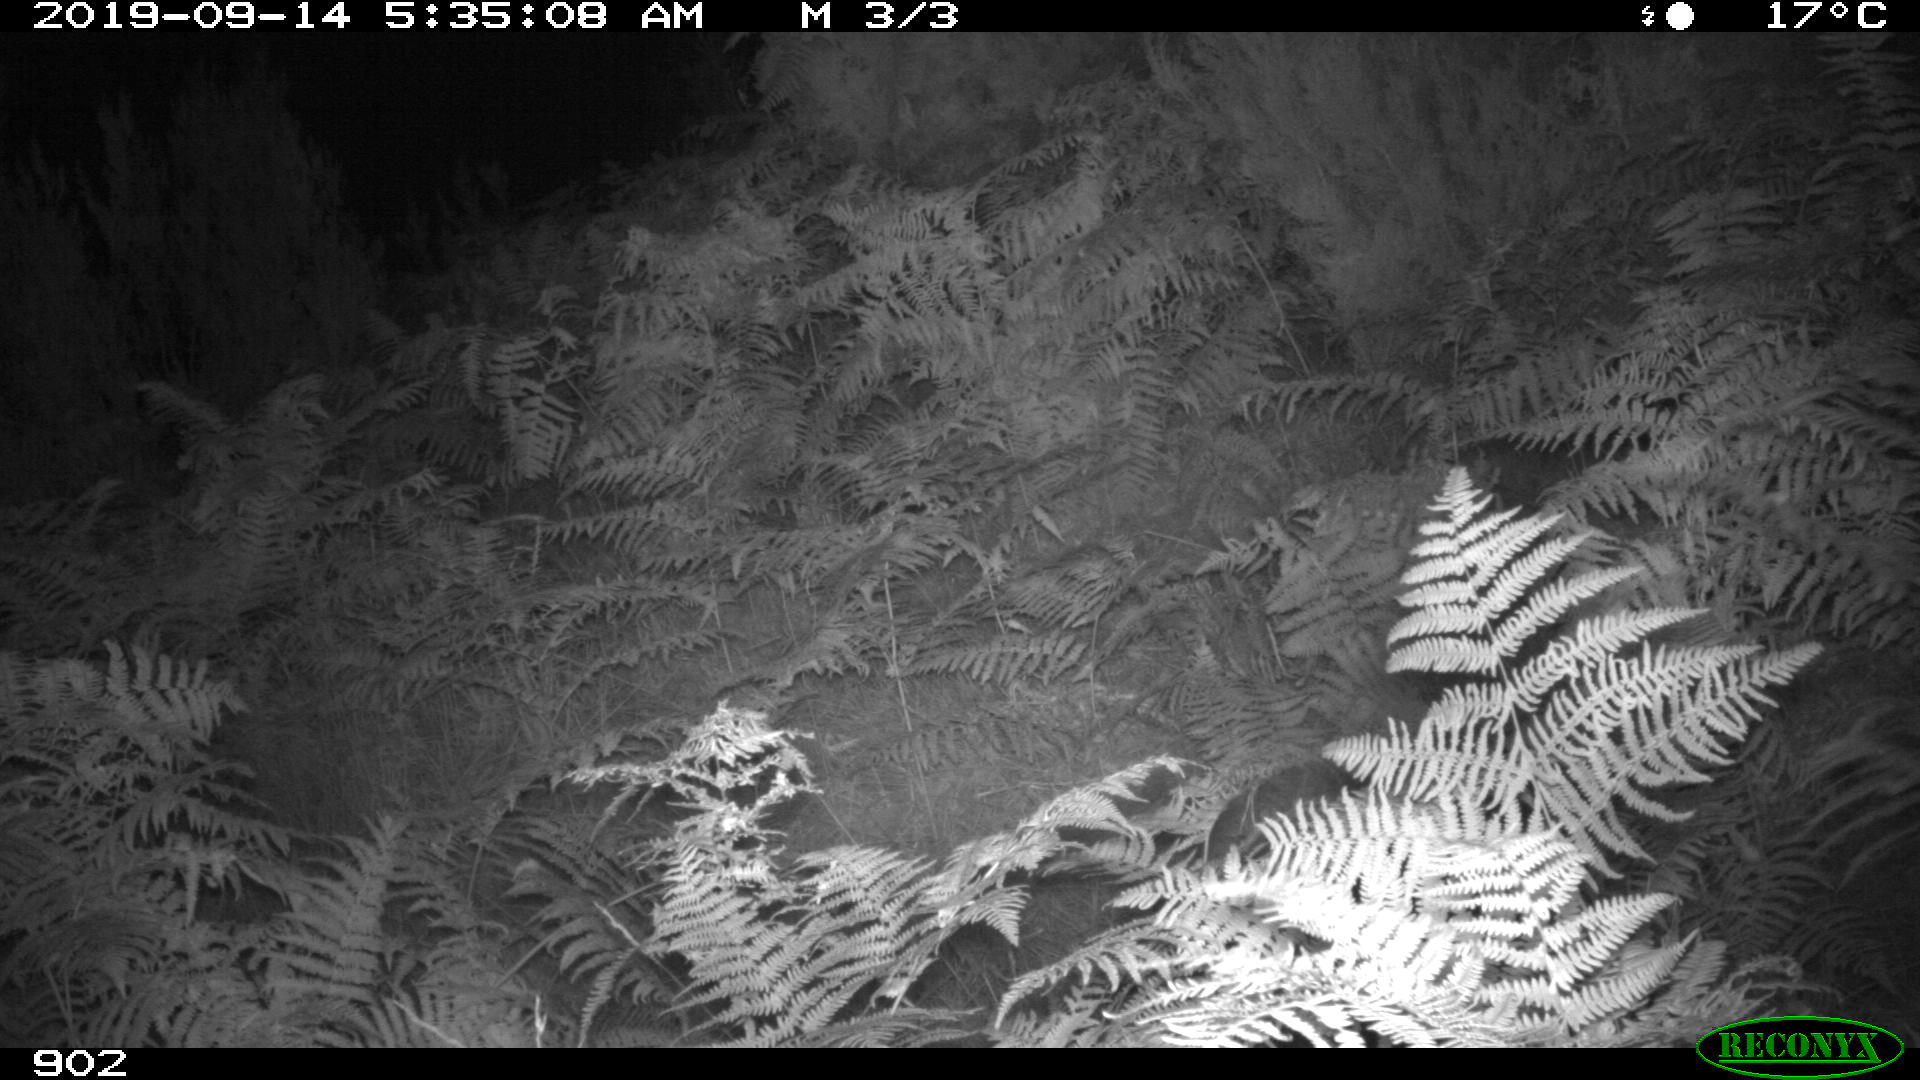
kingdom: Animalia
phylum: Chordata
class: Mammalia
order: Perissodactyla
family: Equidae
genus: Equus
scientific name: Equus caballus
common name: Horse
